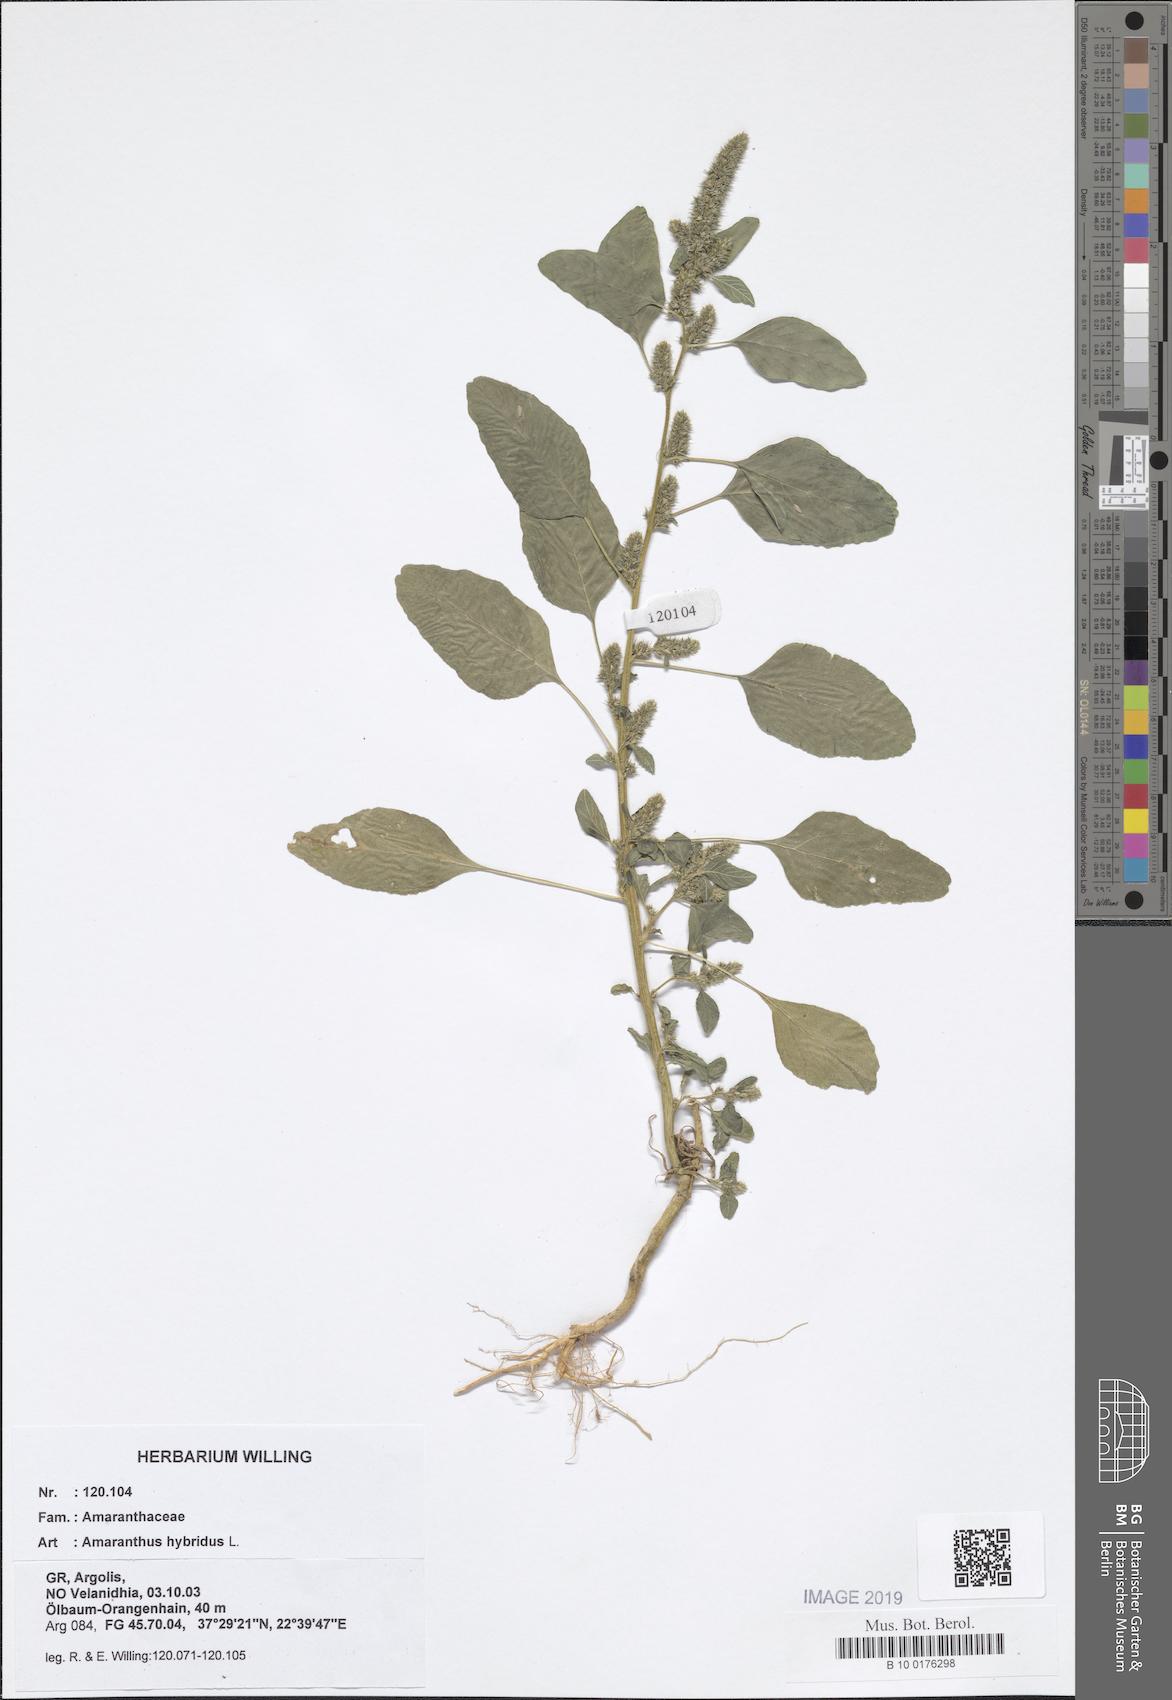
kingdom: Plantae
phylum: Tracheophyta
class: Magnoliopsida
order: Caryophyllales
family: Amaranthaceae
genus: Amaranthus
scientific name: Amaranthus hybridus
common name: Green amaranth
